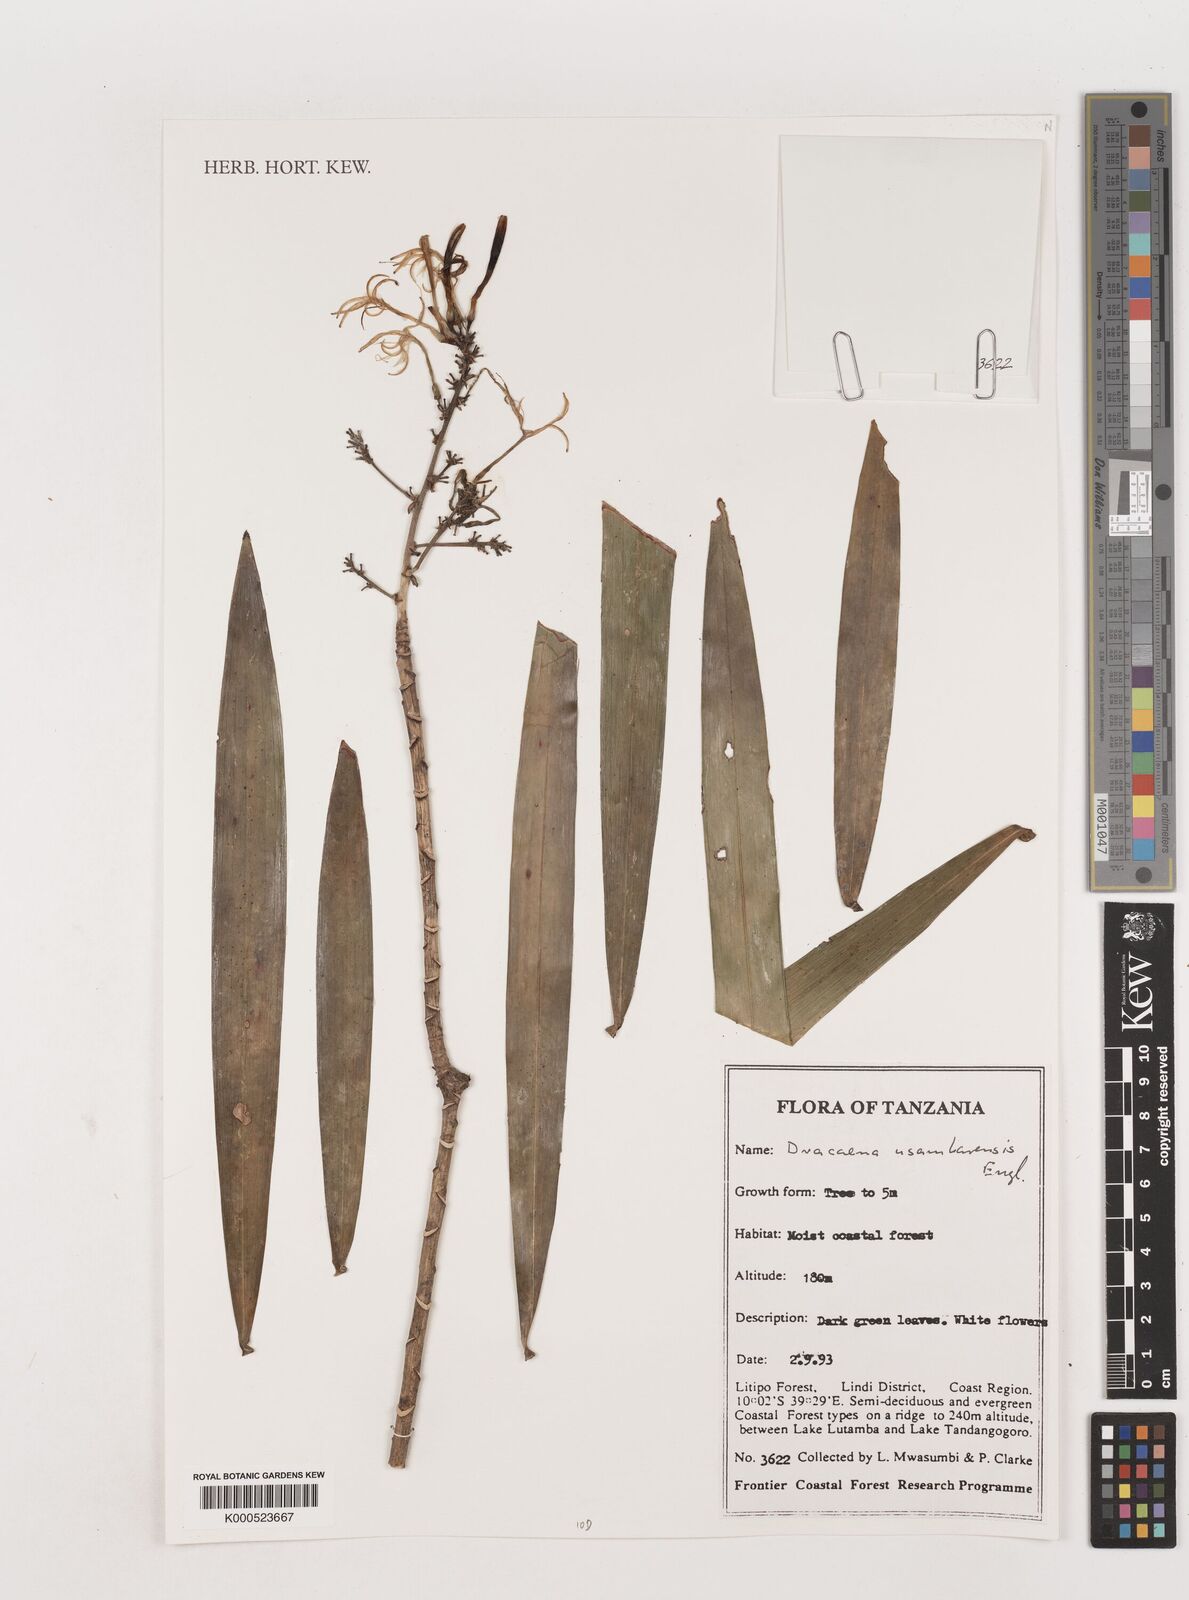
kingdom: Plantae
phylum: Tracheophyta
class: Liliopsida
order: Asparagales
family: Asparagaceae
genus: Dracaena
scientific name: Dracaena usambarensis
